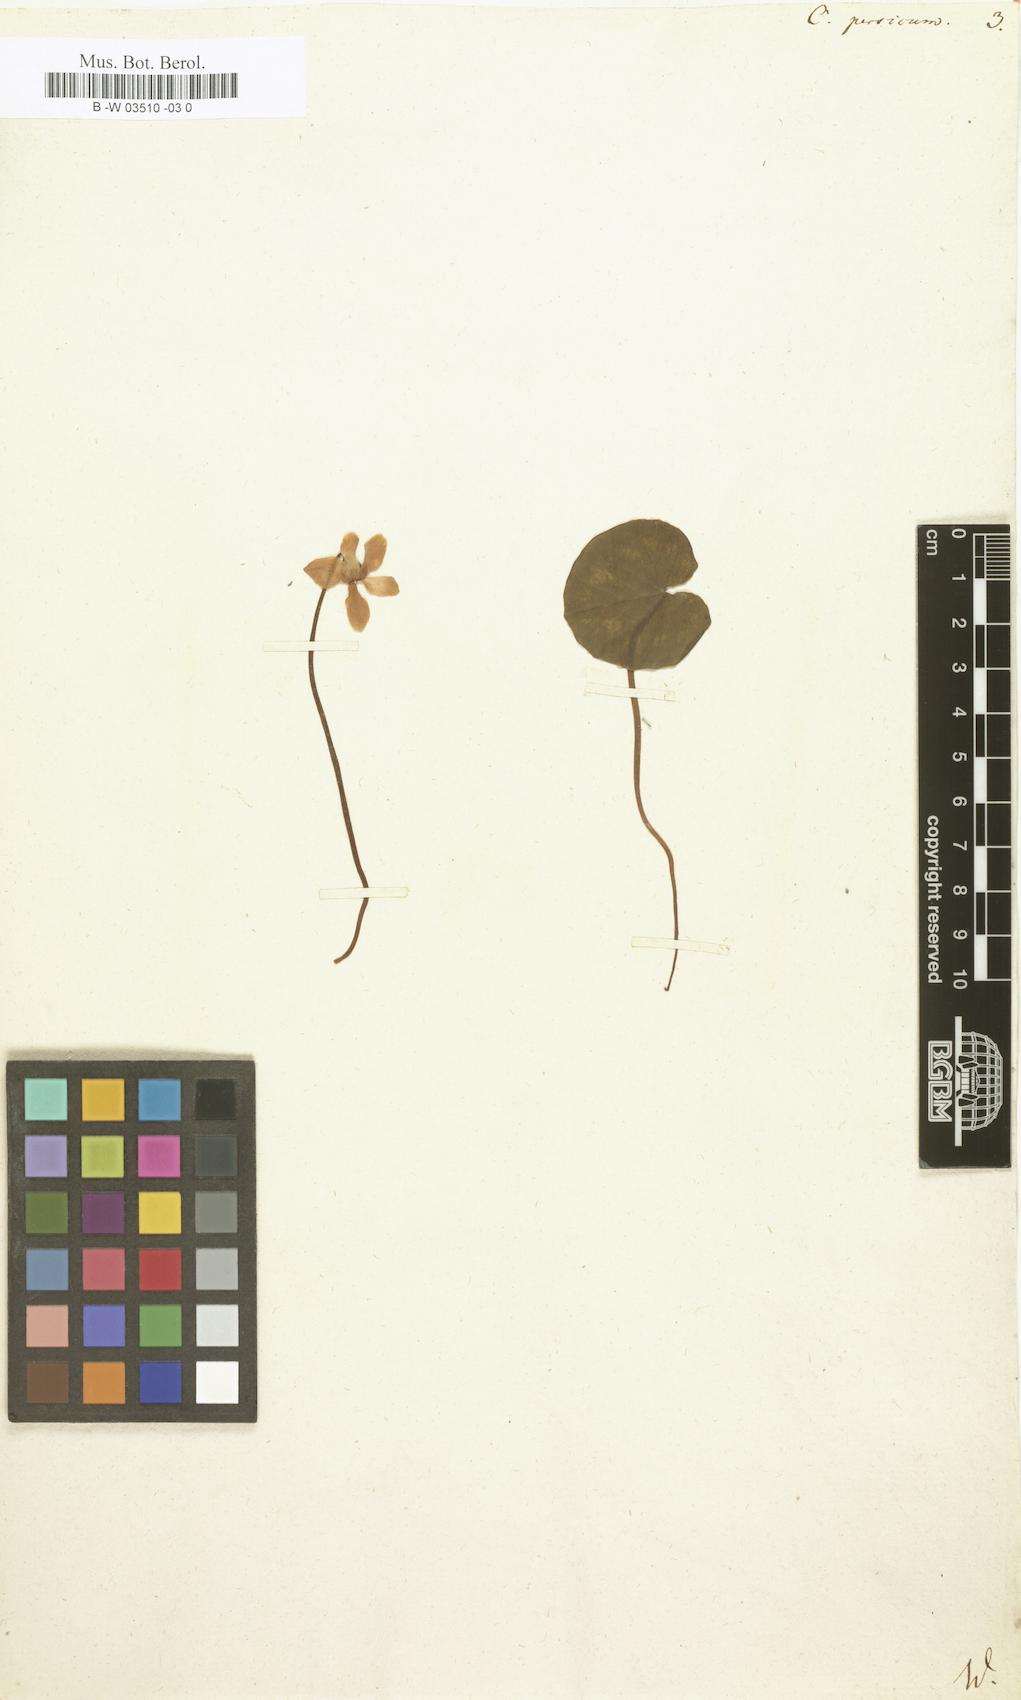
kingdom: Plantae
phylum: Tracheophyta
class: Magnoliopsida
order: Ericales
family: Primulaceae
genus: Cyclamen
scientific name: Cyclamen persicum
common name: Florist's cyclamen
